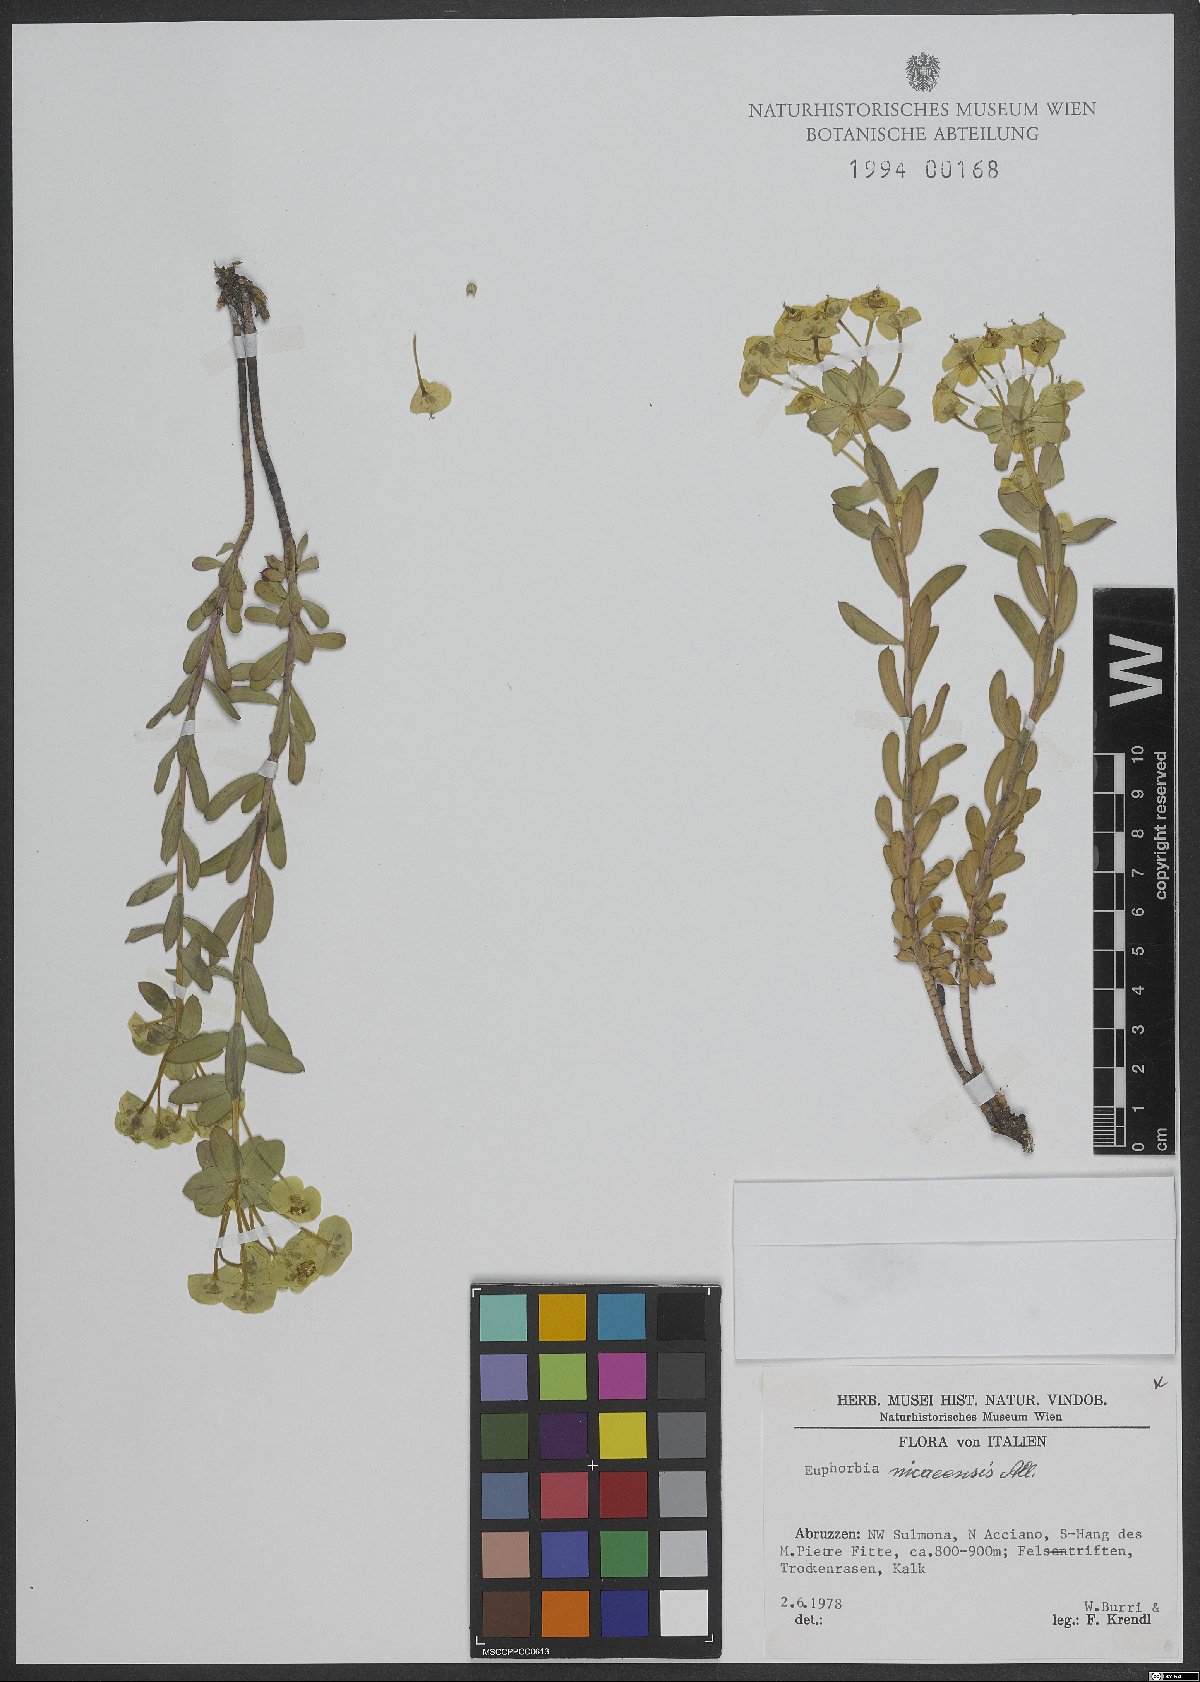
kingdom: Plantae
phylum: Tracheophyta
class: Magnoliopsida
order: Malpighiales
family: Euphorbiaceae
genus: Euphorbia
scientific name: Euphorbia nicaeensis
